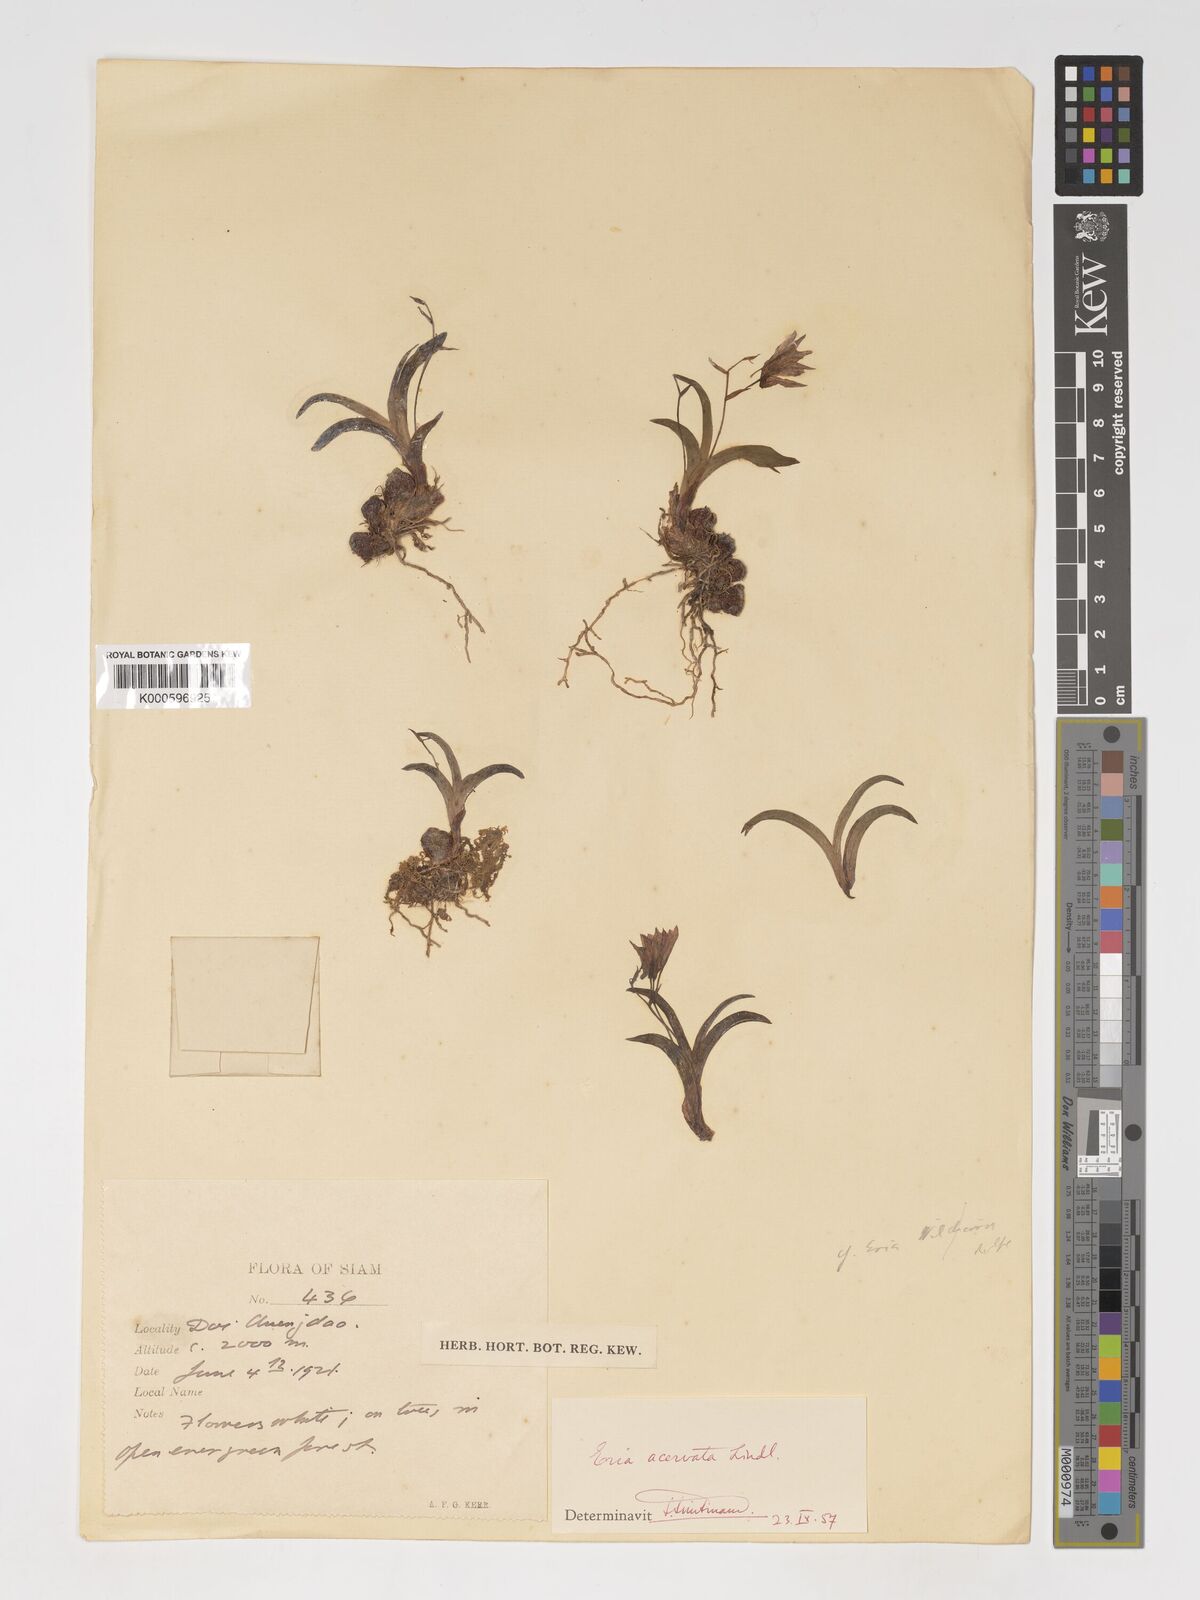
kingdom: Plantae
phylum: Tracheophyta
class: Liliopsida
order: Asparagales
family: Orchidaceae
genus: Pinalia
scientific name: Pinalia wildiana
